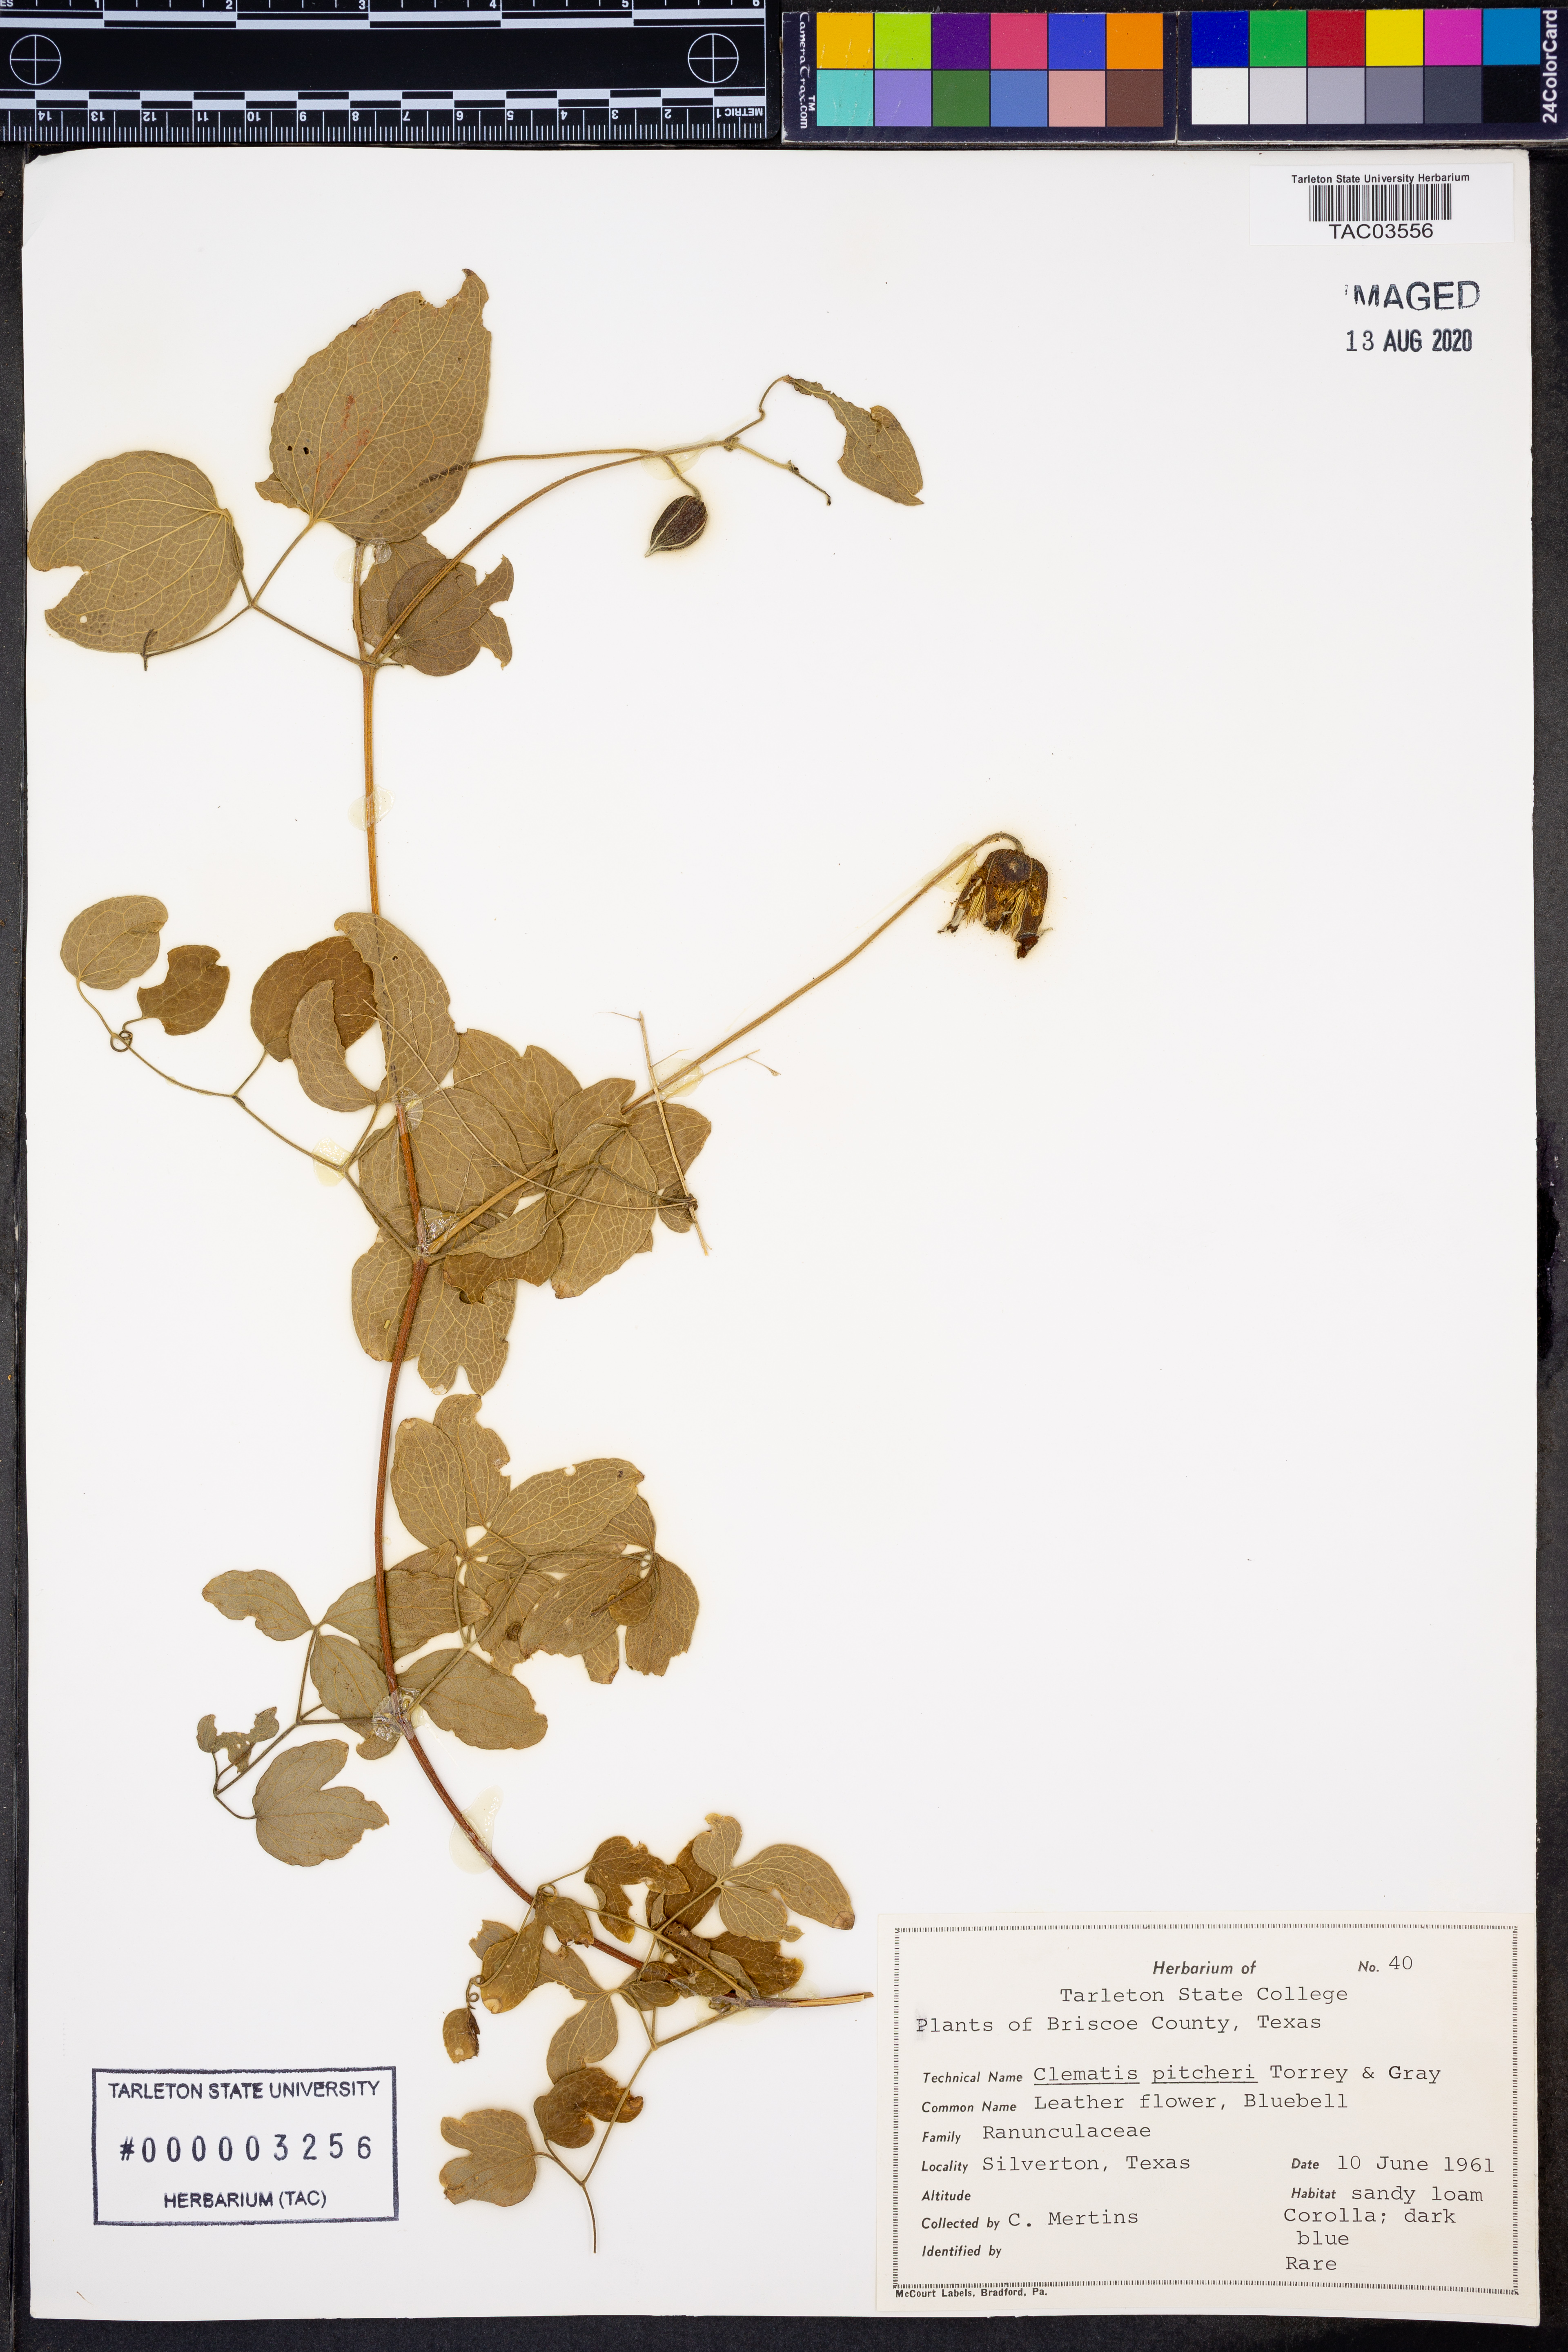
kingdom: Plantae
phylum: Tracheophyta
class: Magnoliopsida
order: Ranunculales
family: Ranunculaceae
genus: Clematis
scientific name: Clematis pitcheri
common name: Bellflower clematis
